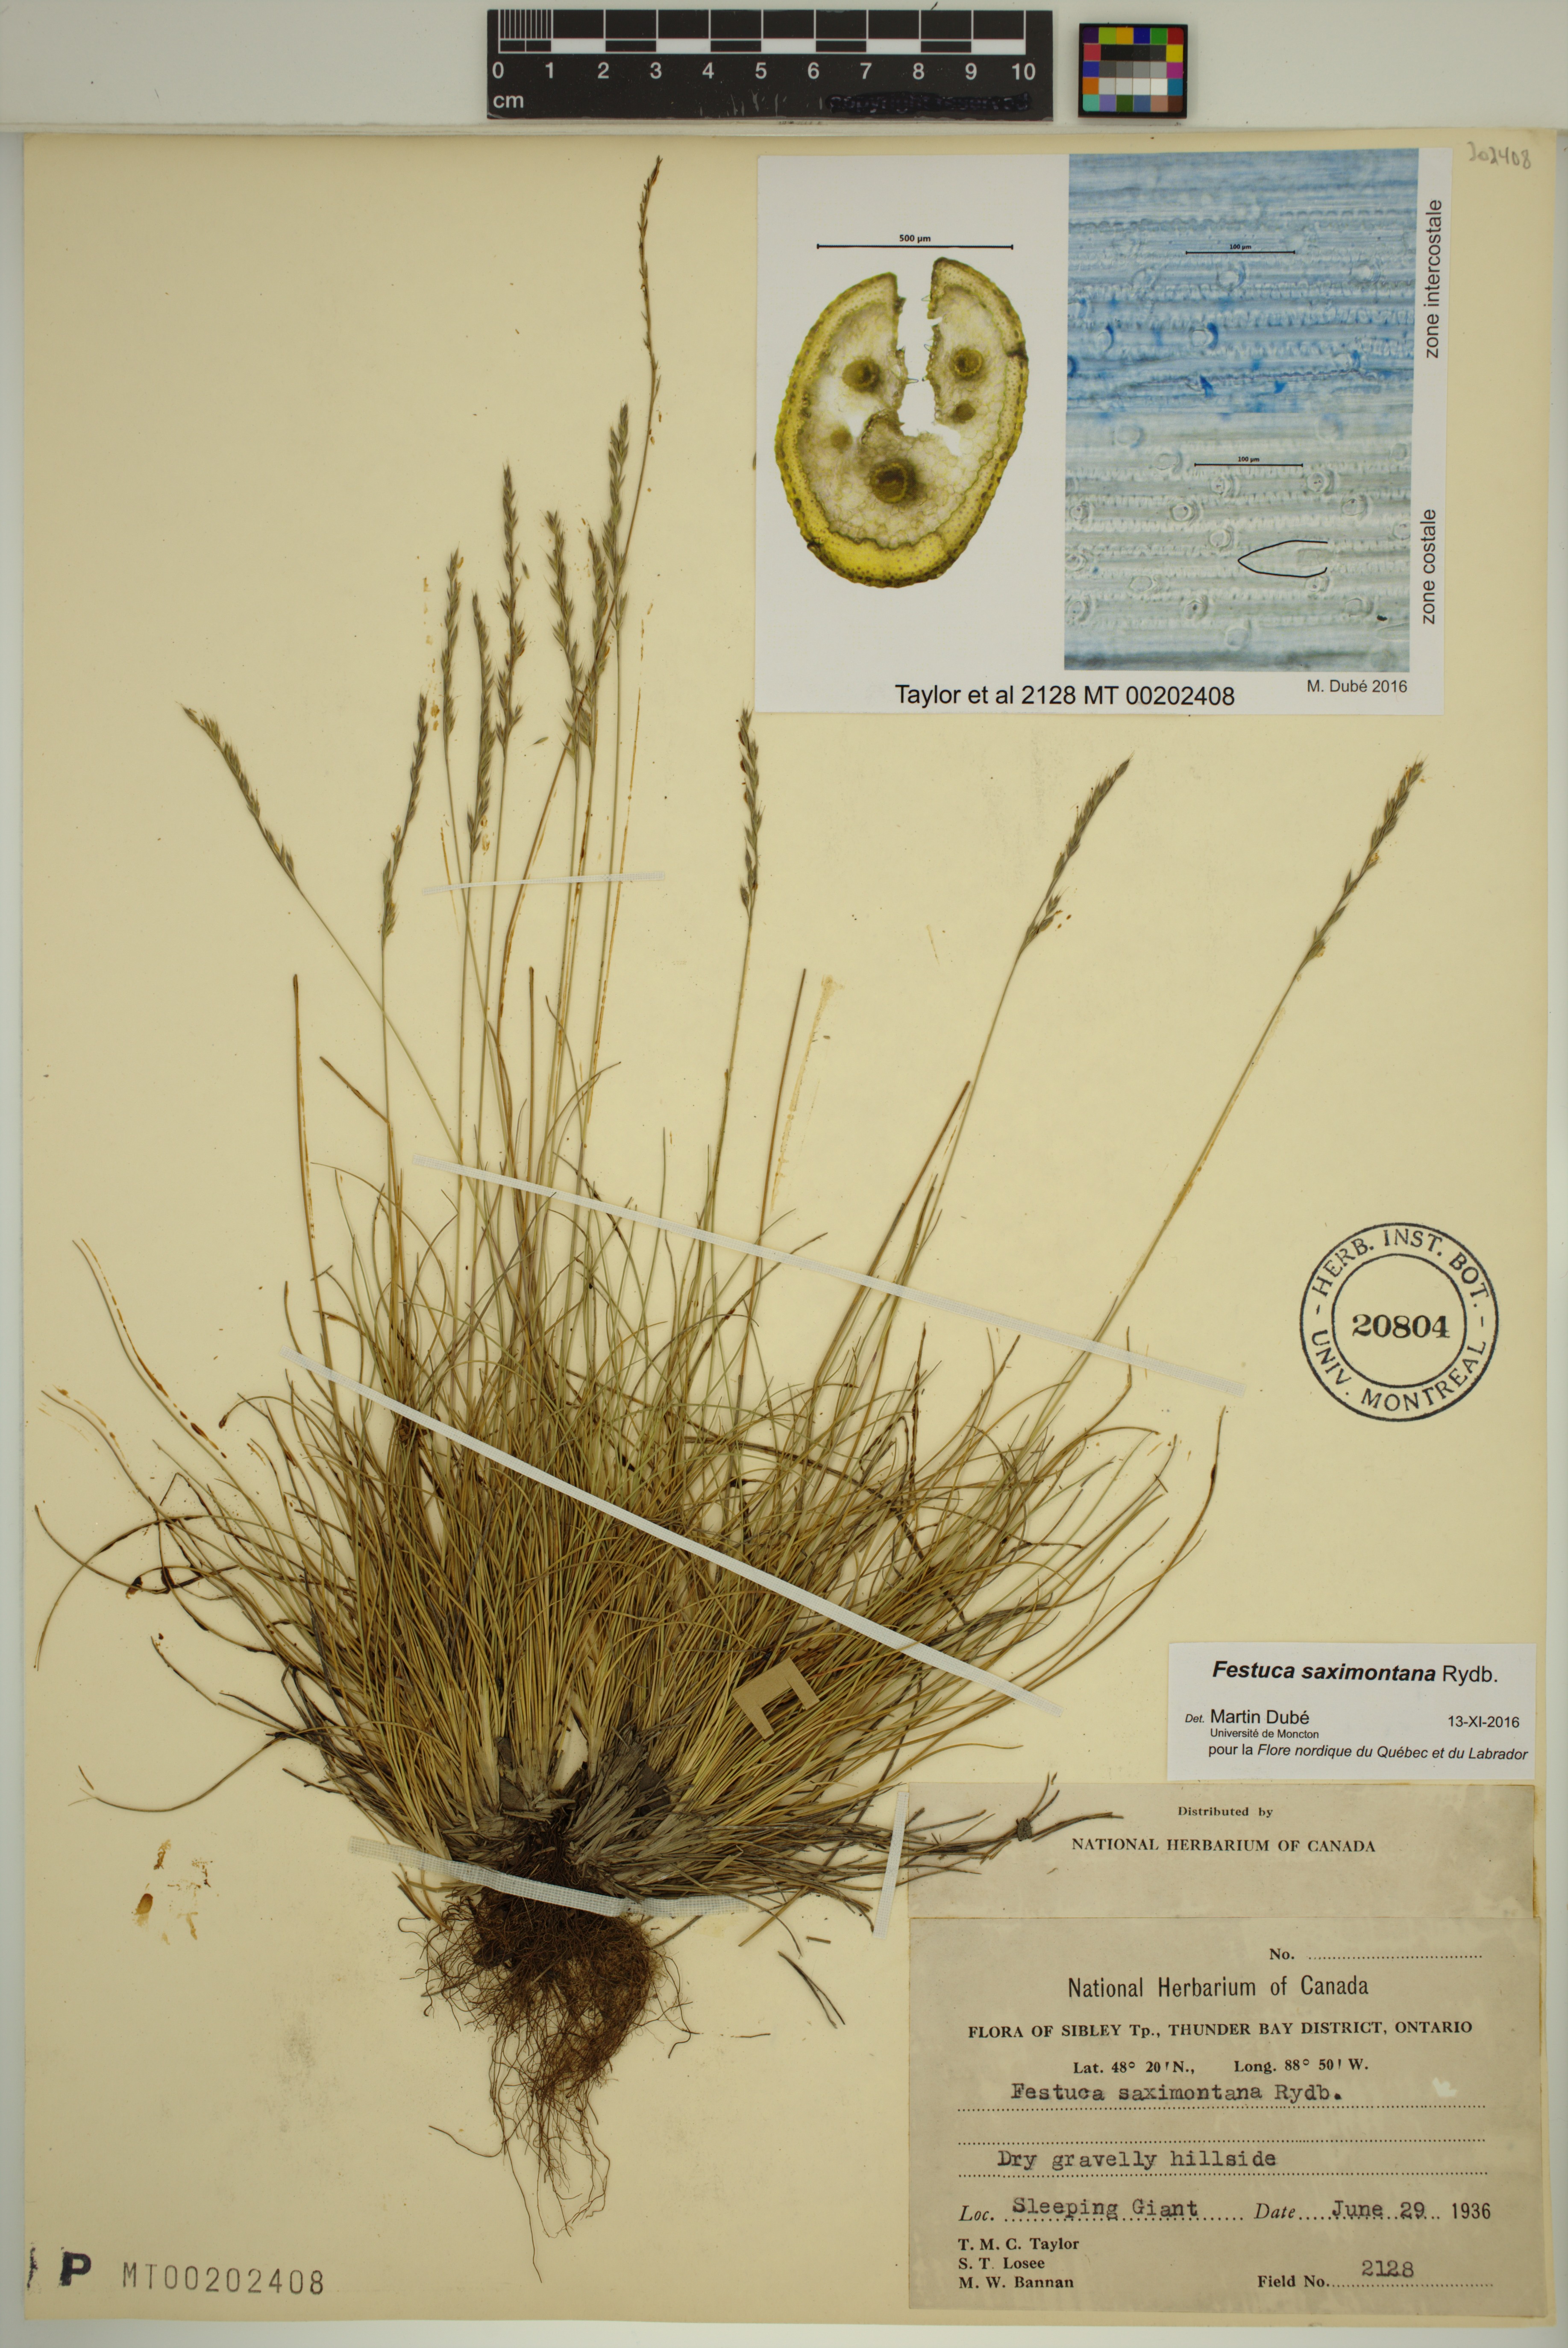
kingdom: Plantae
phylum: Tracheophyta
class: Liliopsida
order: Poales
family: Poaceae
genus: Festuca
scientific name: Festuca saximontana
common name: Mountain fescue
